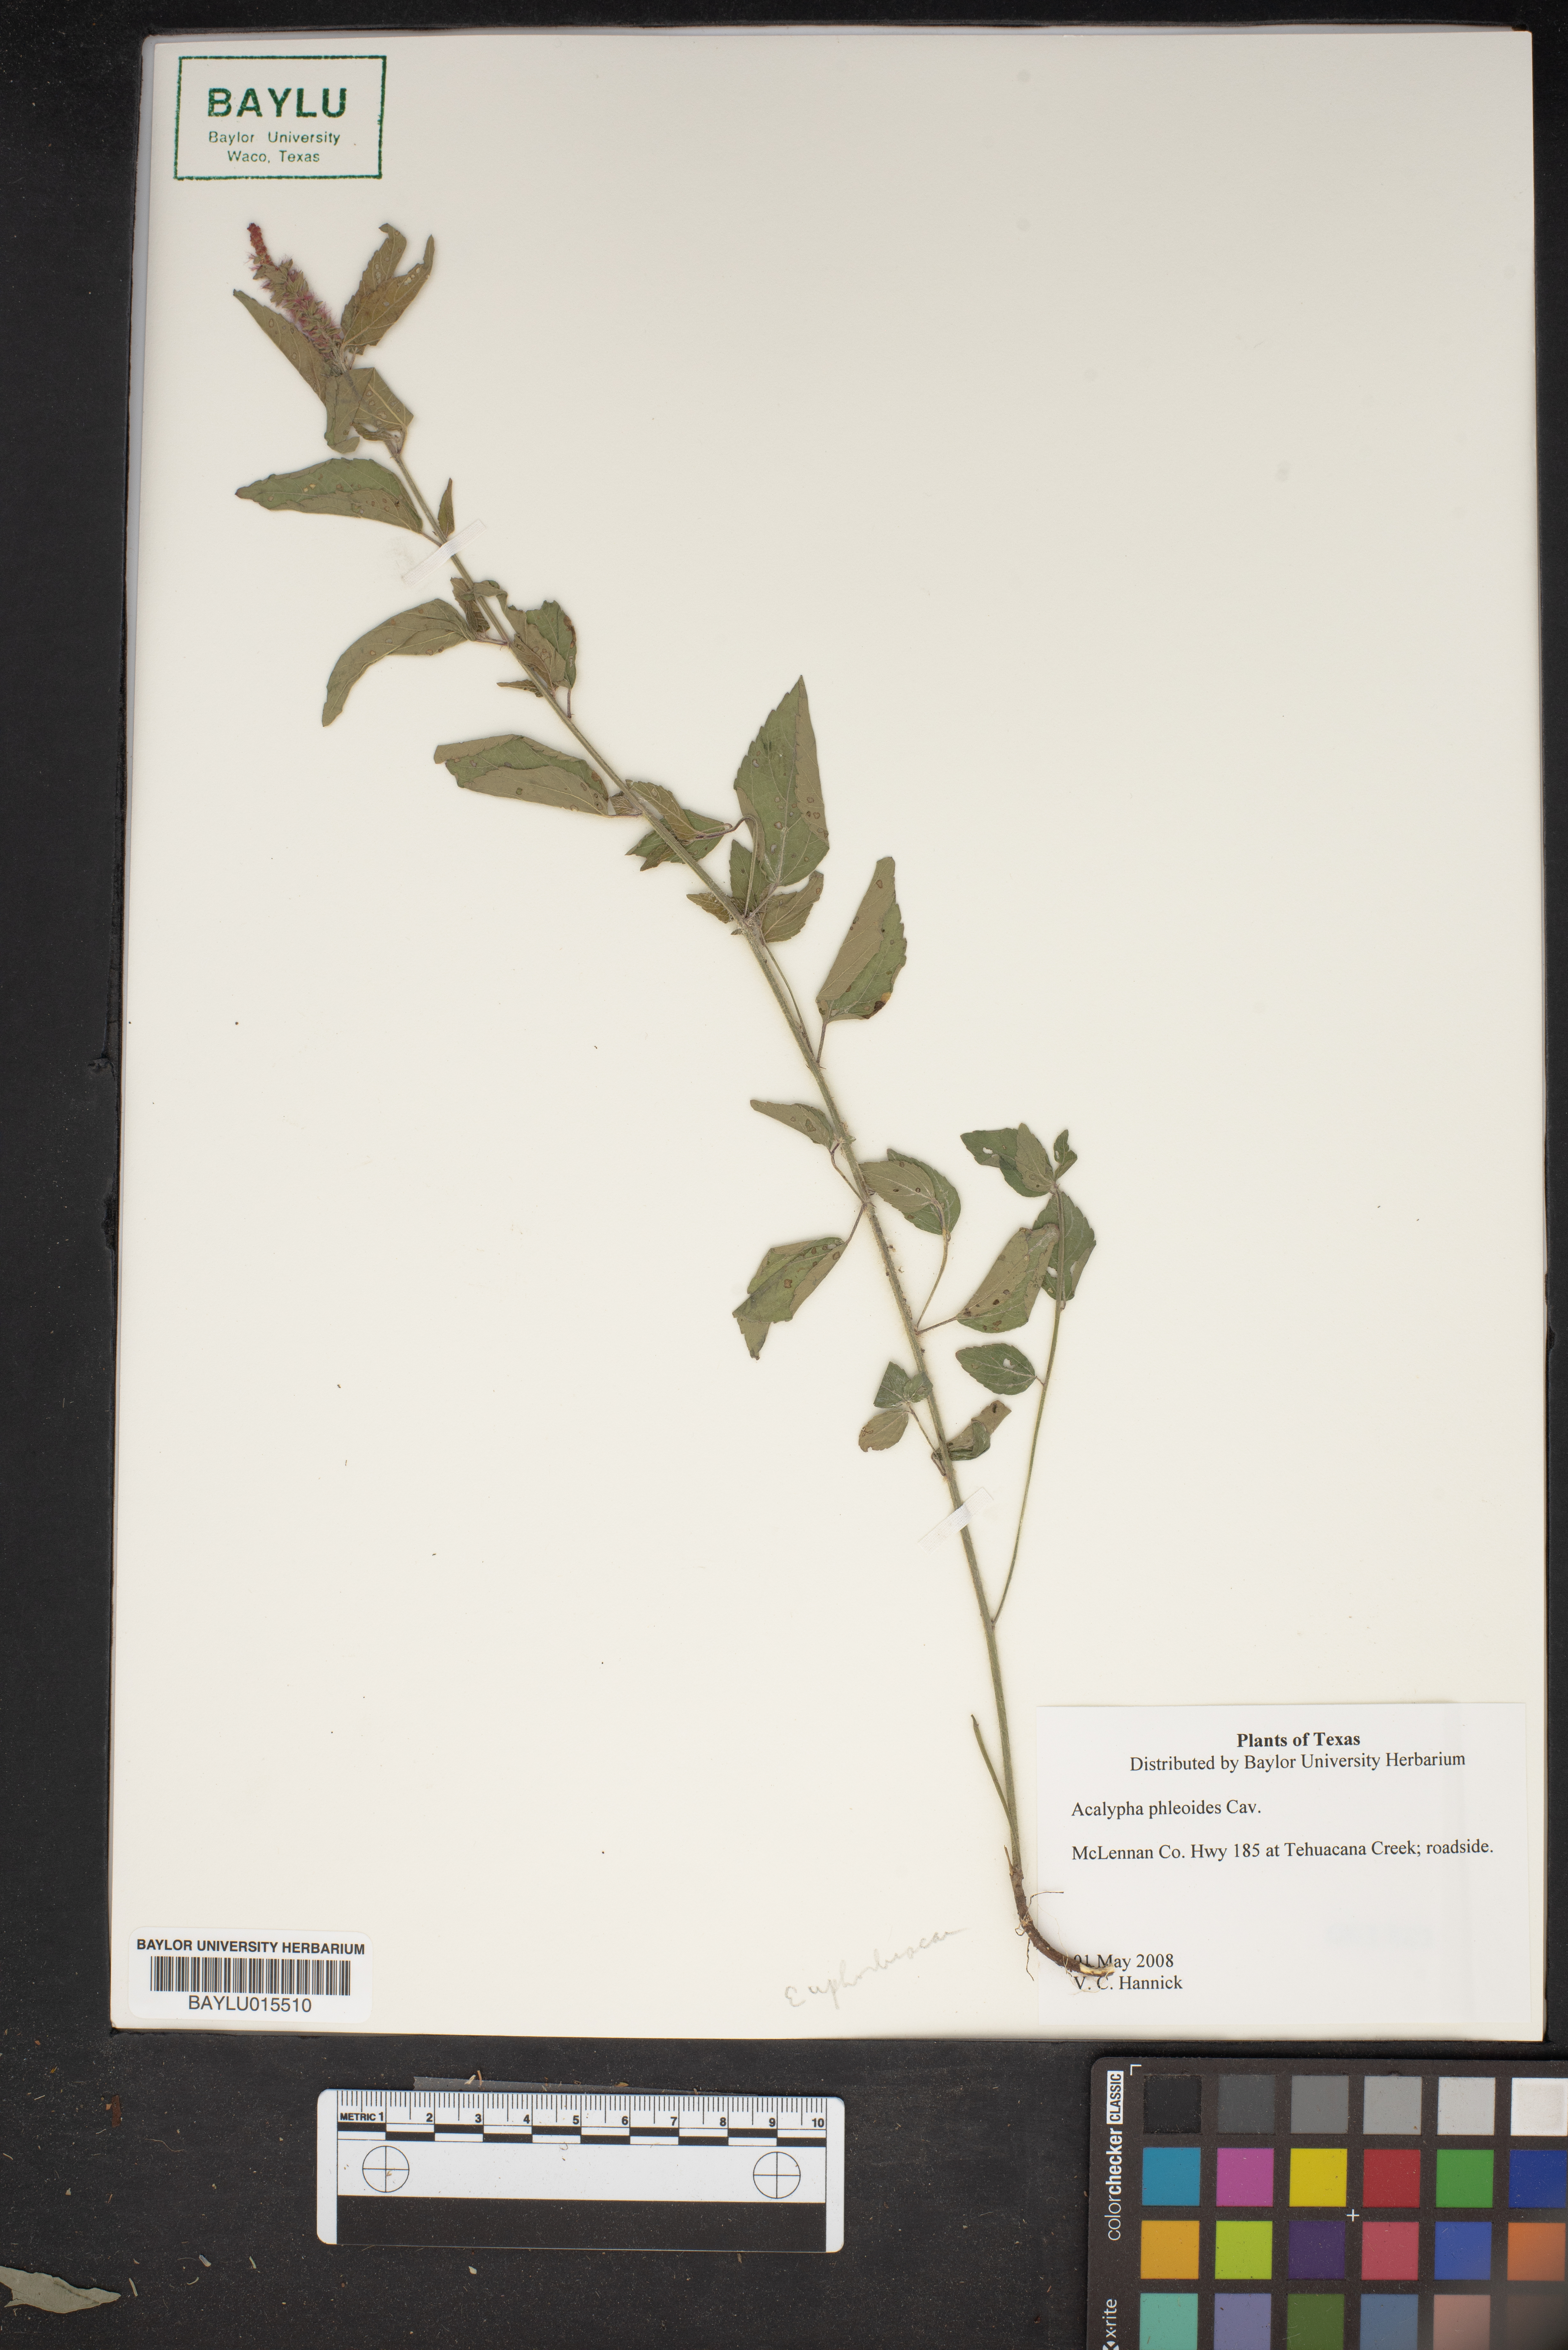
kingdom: Plantae
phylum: Tracheophyta
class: Magnoliopsida
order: Malpighiales
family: Euphorbiaceae
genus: Acalypha
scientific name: Acalypha phleoides
